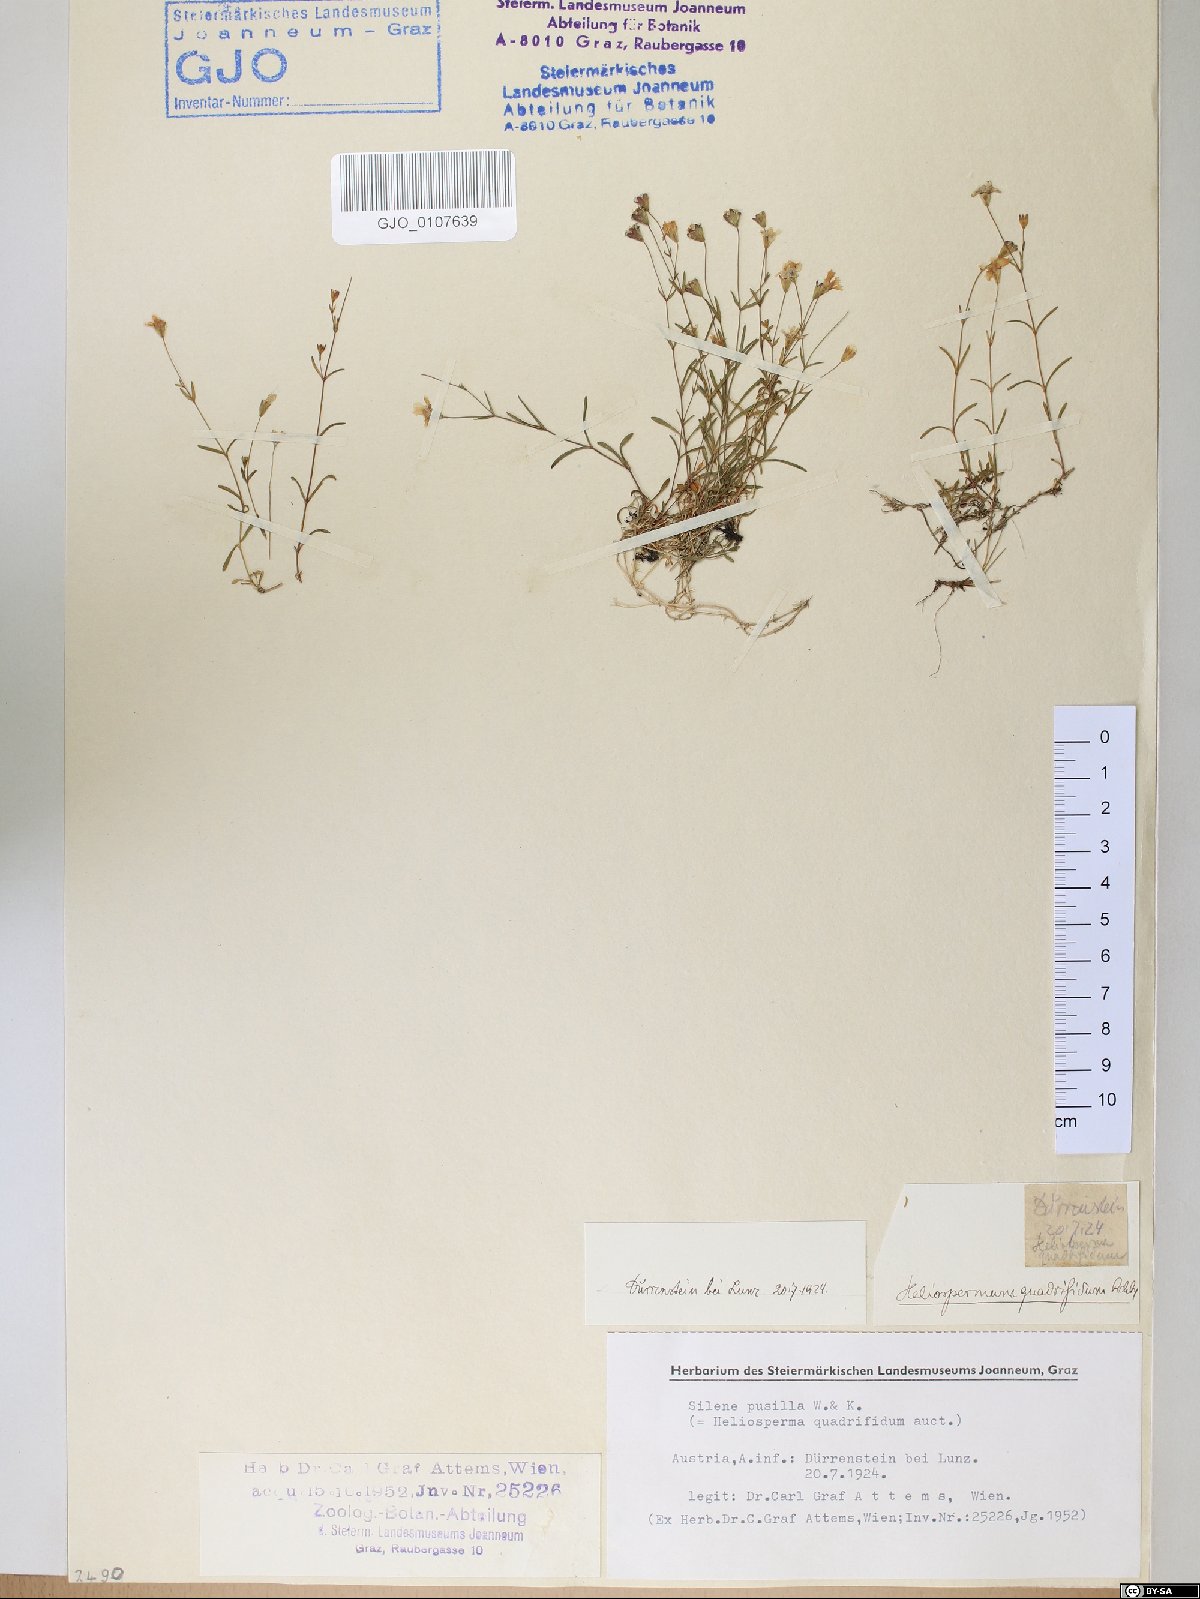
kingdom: Plantae
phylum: Tracheophyta
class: Magnoliopsida
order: Caryophyllales
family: Caryophyllaceae
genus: Heliosperma
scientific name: Heliosperma alpestre
